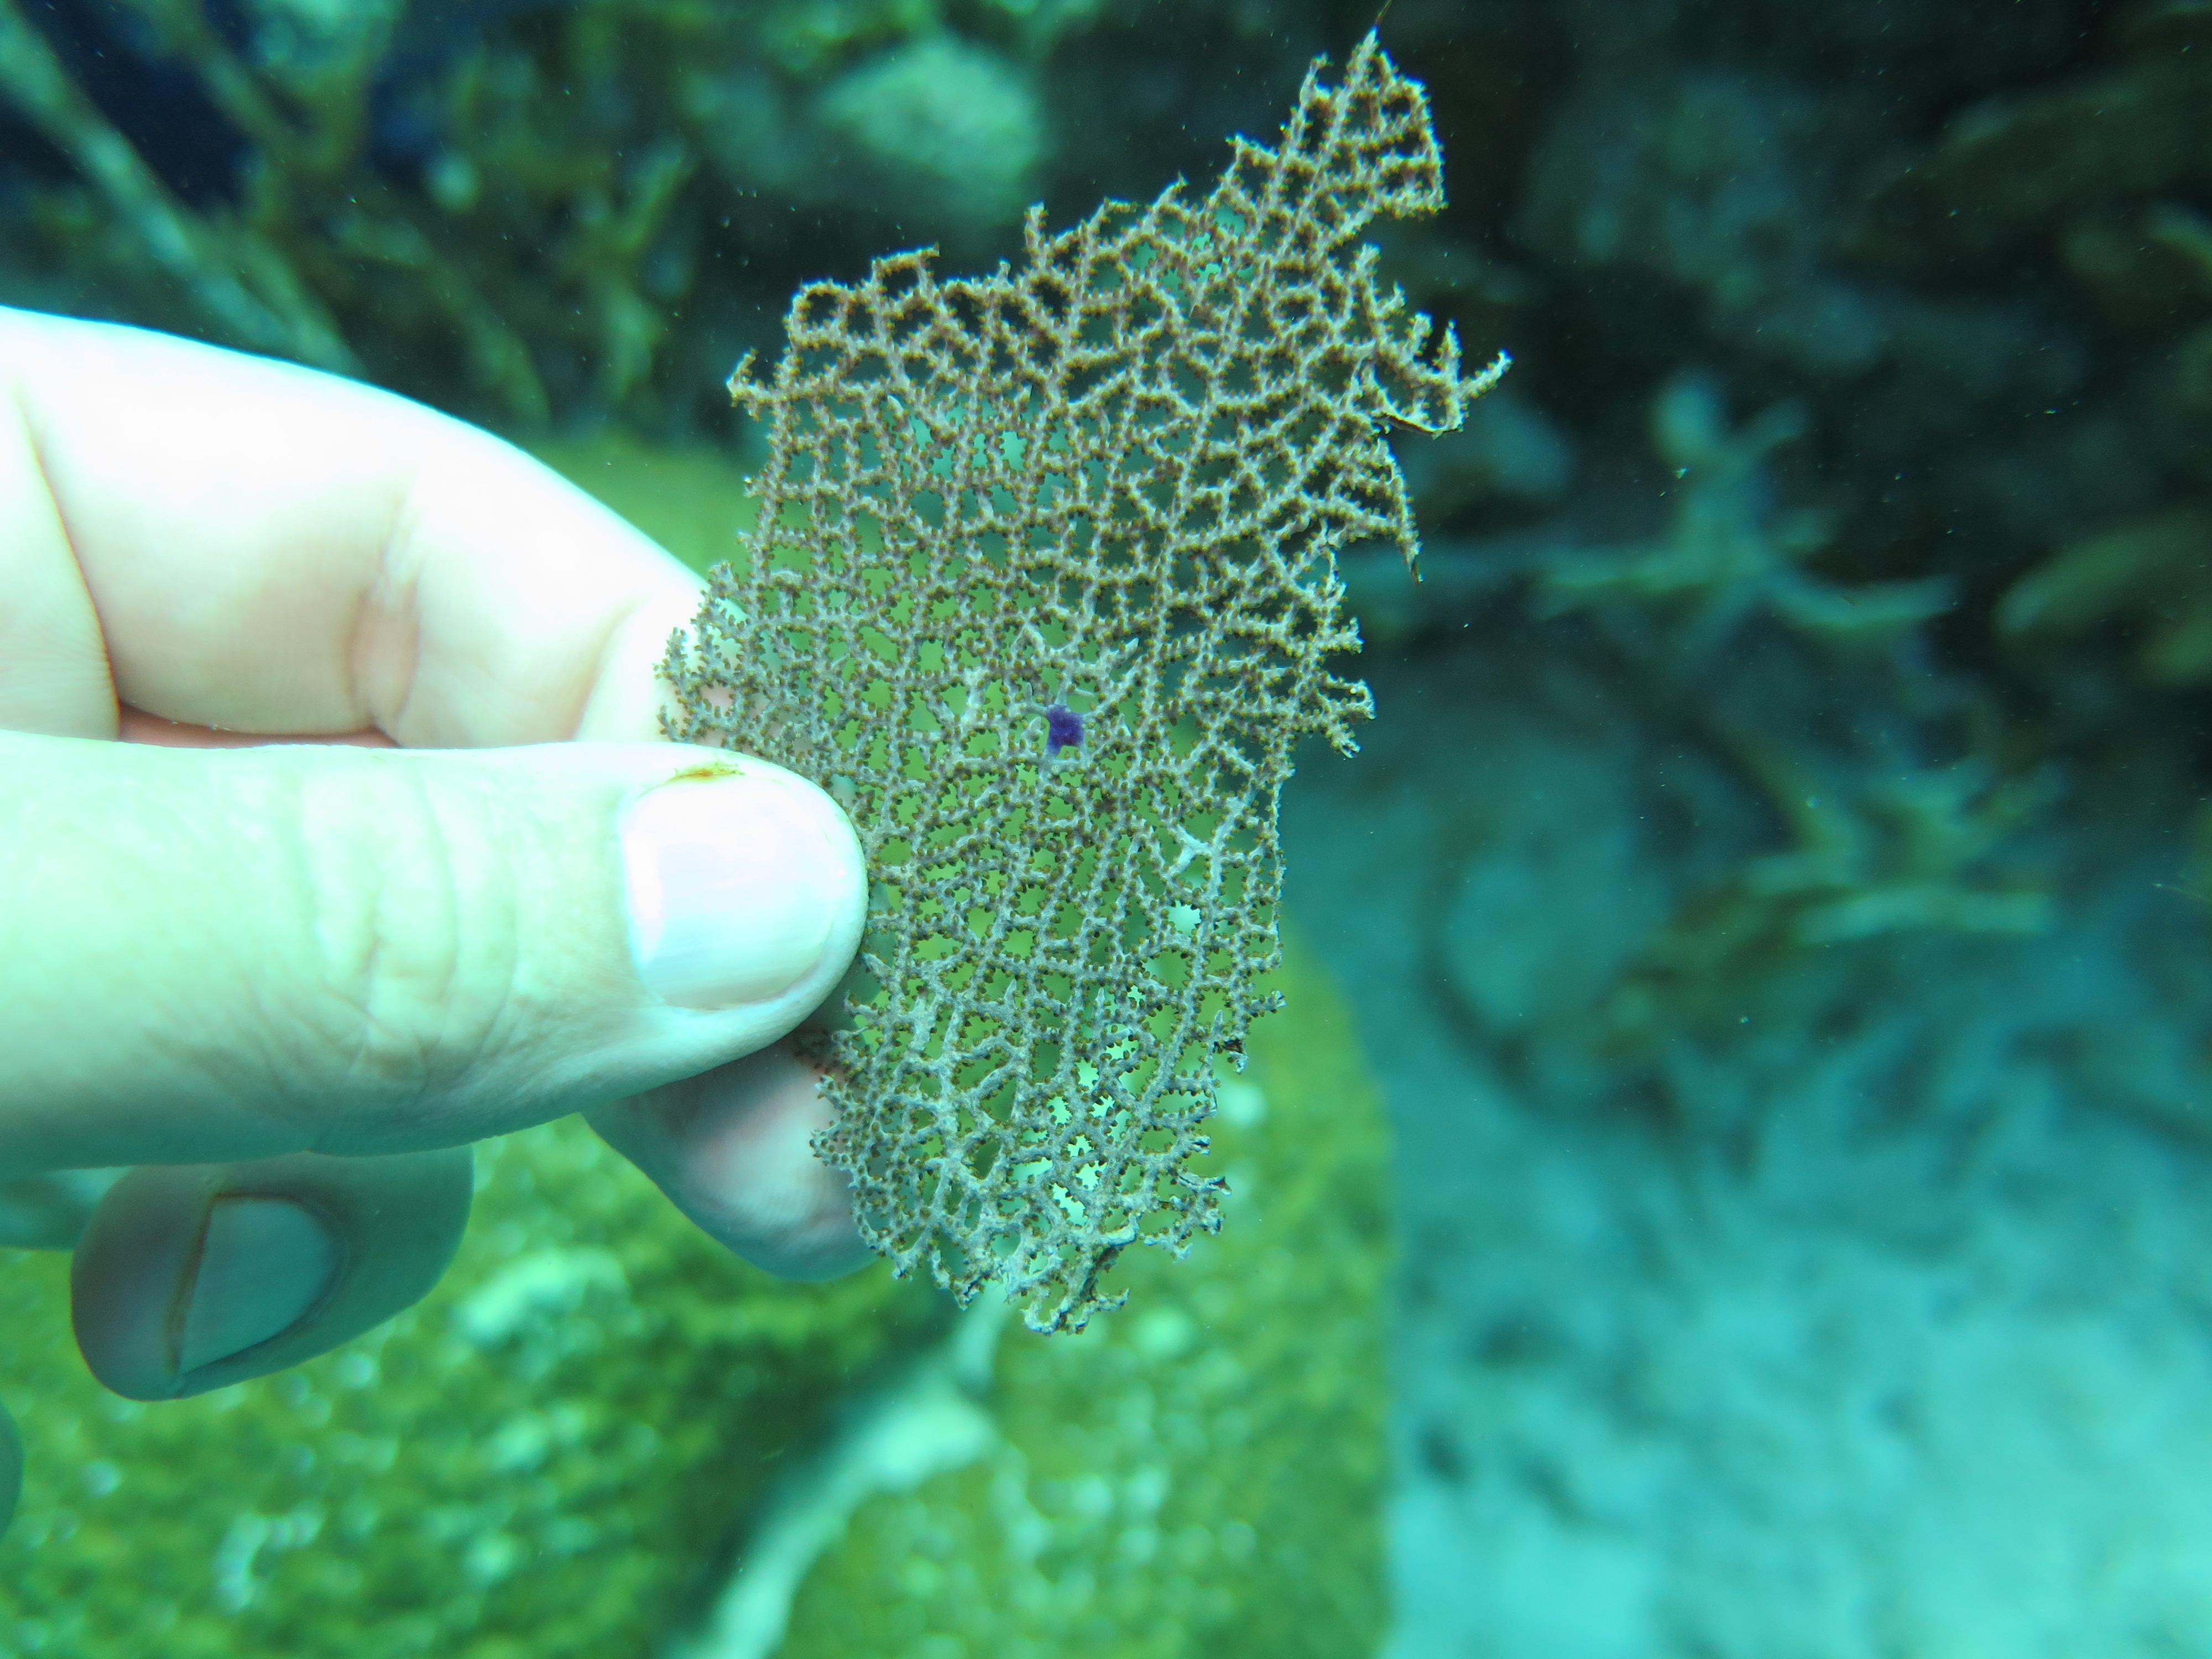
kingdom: Animalia
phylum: Cnidaria
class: Anthozoa
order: Malacalcyonacea
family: Gorgoniidae
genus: Gorgonia
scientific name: Gorgonia ventalina
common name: Common sea fan
